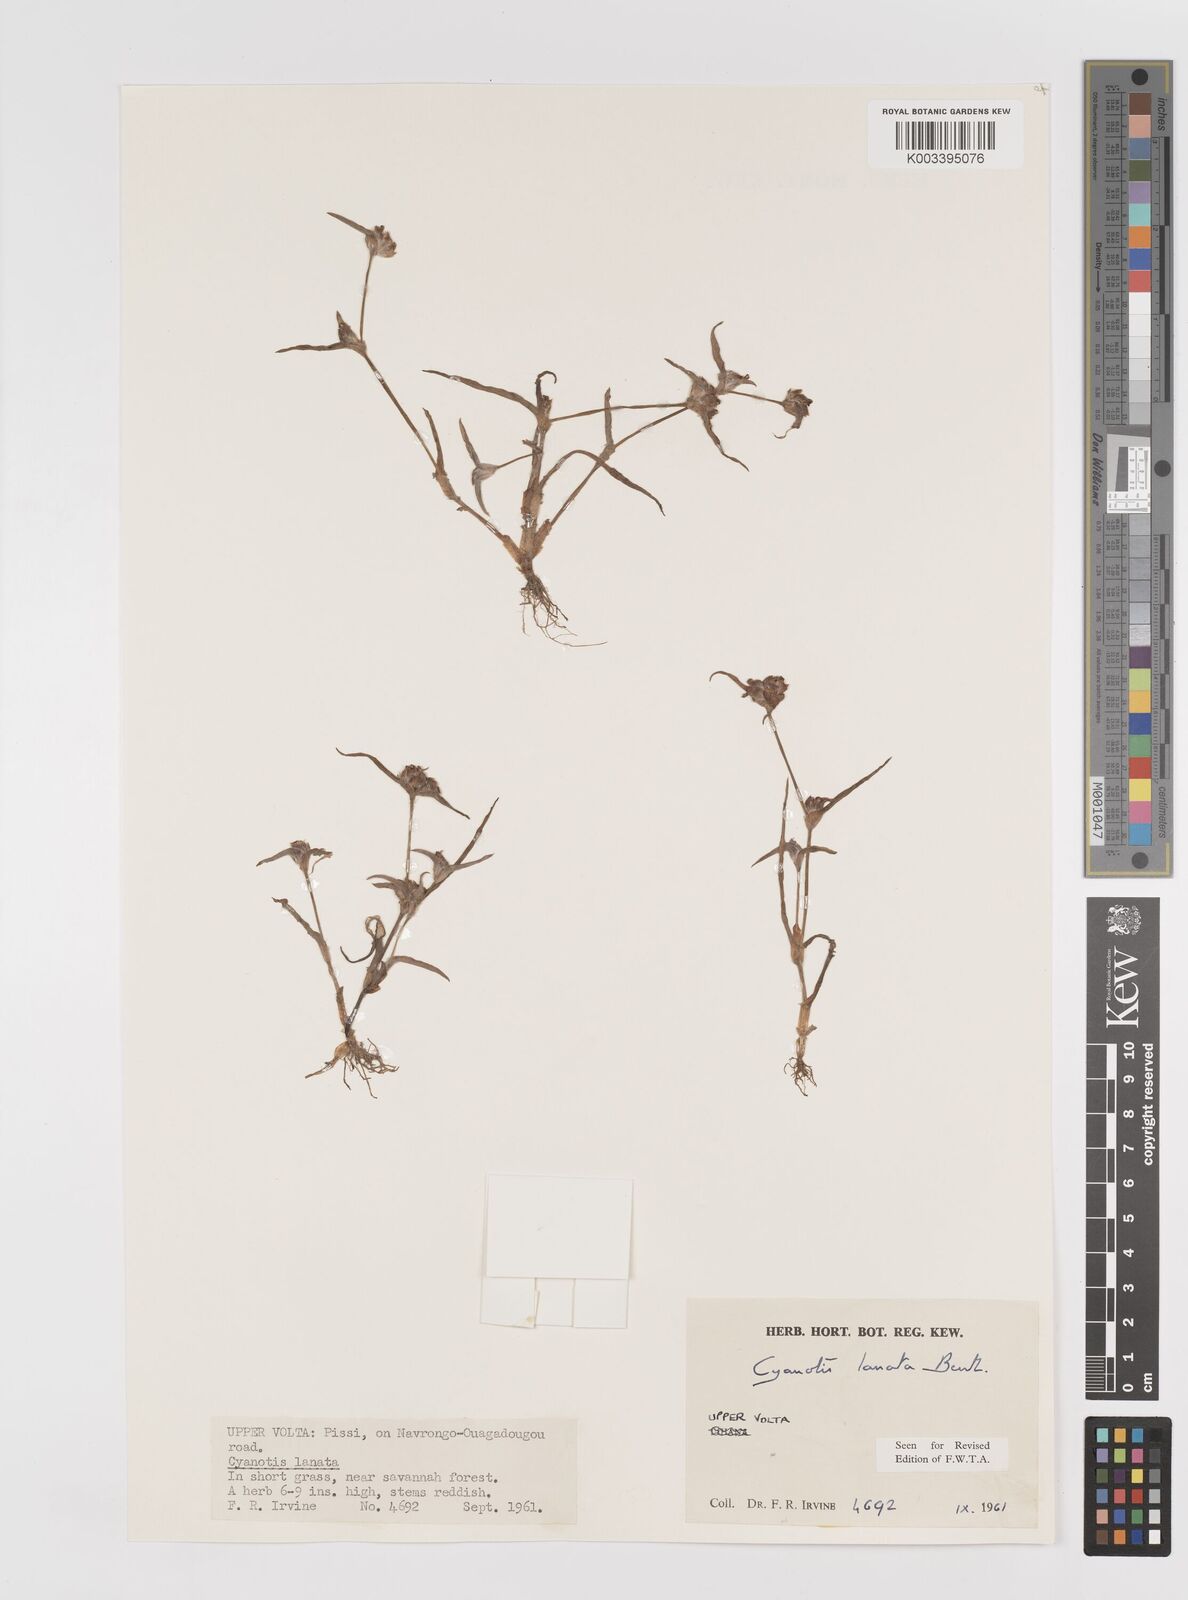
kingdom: Plantae
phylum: Tracheophyta
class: Liliopsida
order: Commelinales
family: Commelinaceae
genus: Cyanotis
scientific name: Cyanotis lanata
